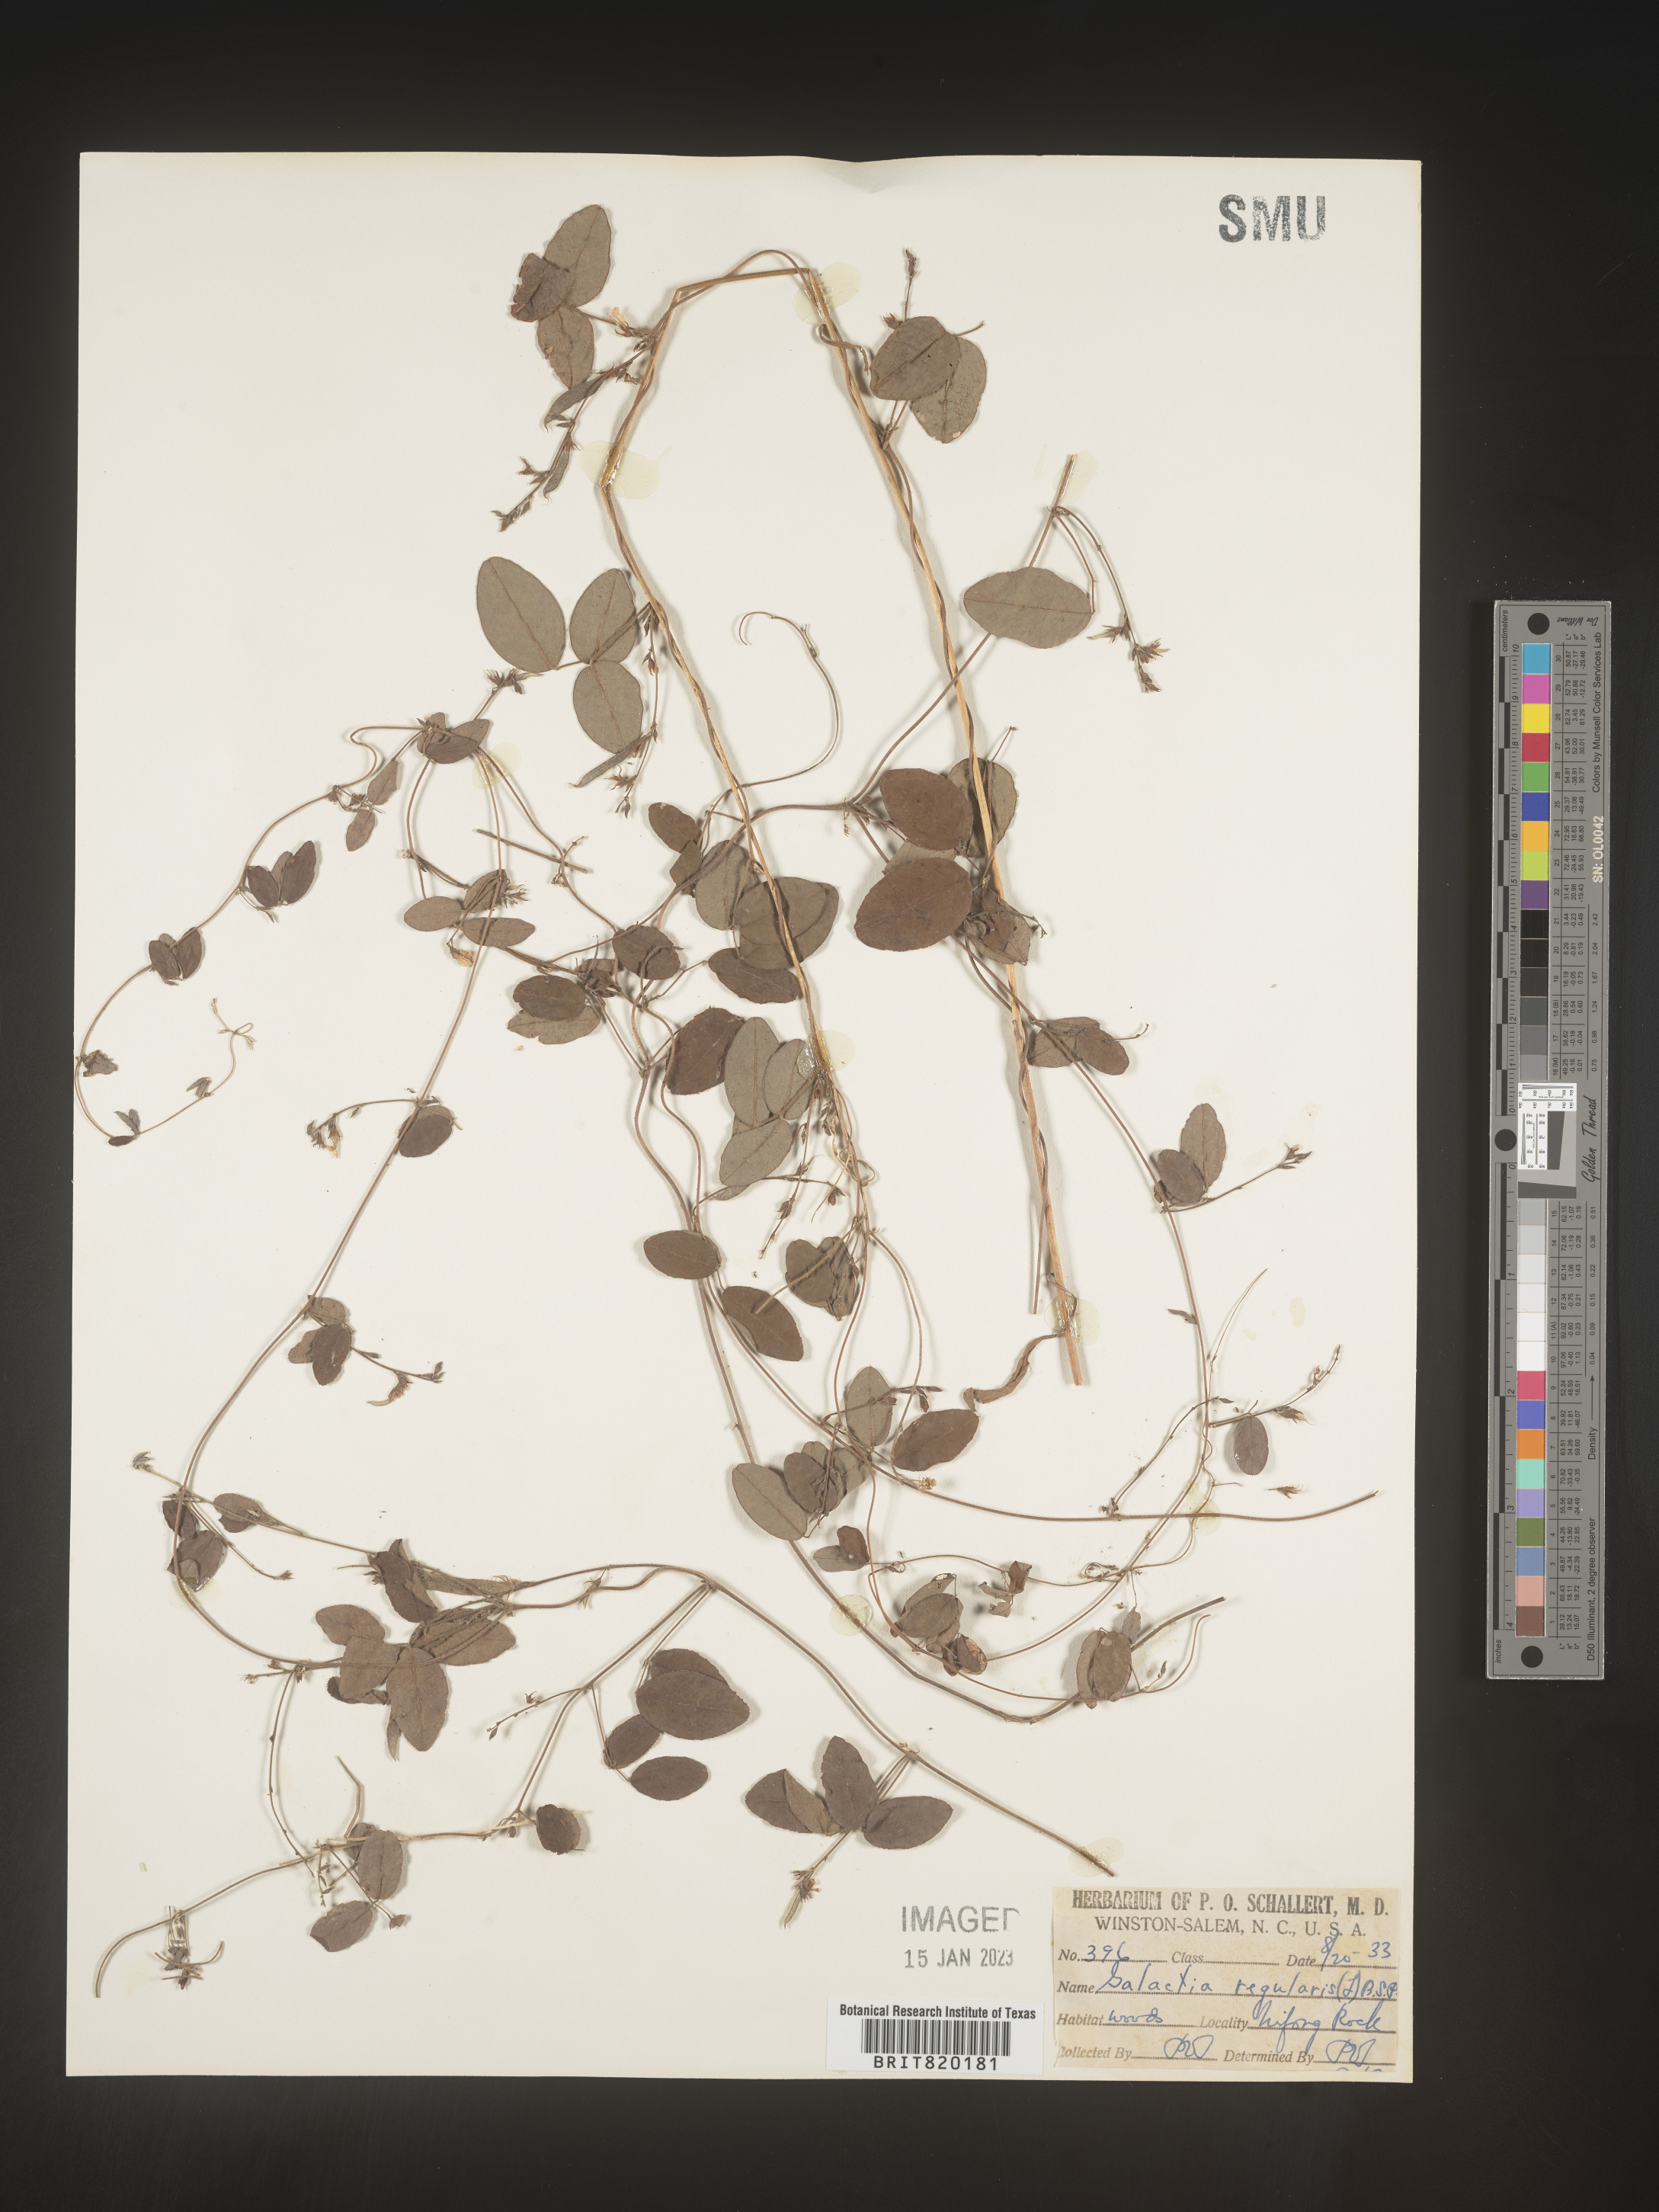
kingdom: Plantae
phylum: Tracheophyta
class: Magnoliopsida
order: Fabales
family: Fabaceae
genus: Galactia
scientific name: Galactia volubilis
